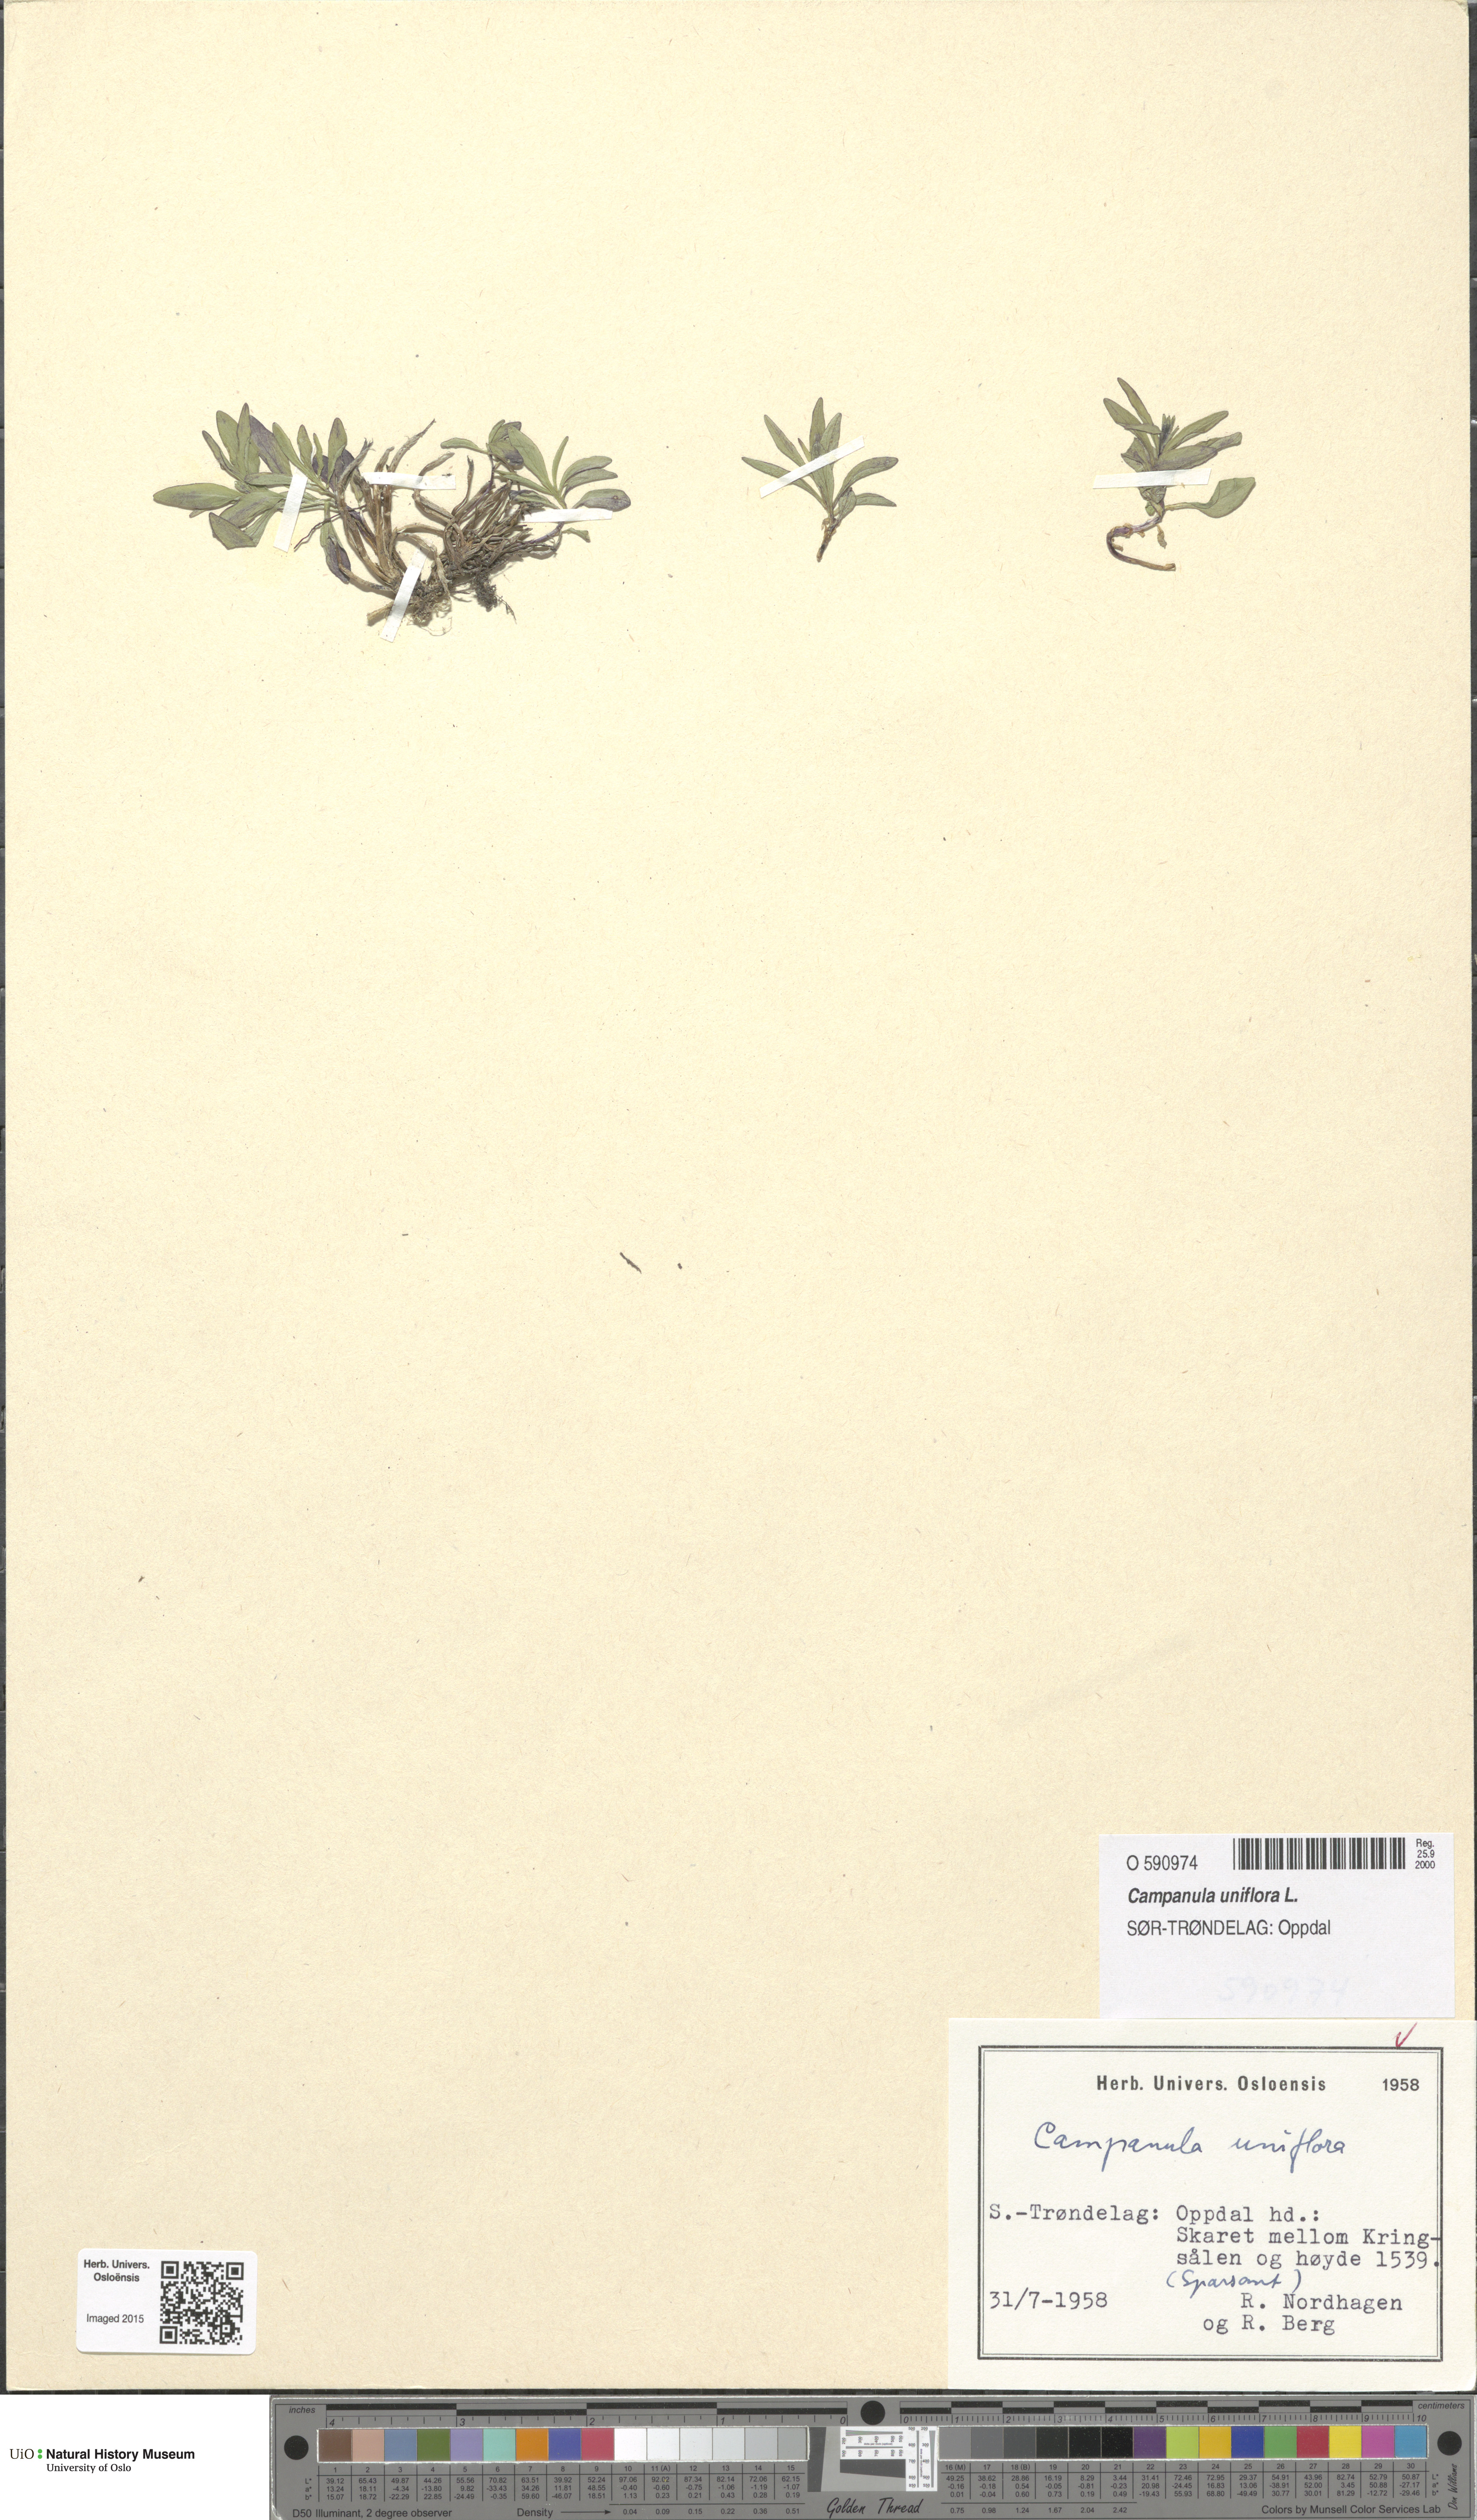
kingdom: Plantae
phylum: Tracheophyta
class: Magnoliopsida
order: Asterales
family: Campanulaceae
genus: Melanocalyx
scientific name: Melanocalyx uniflora
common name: Alpine harebell
